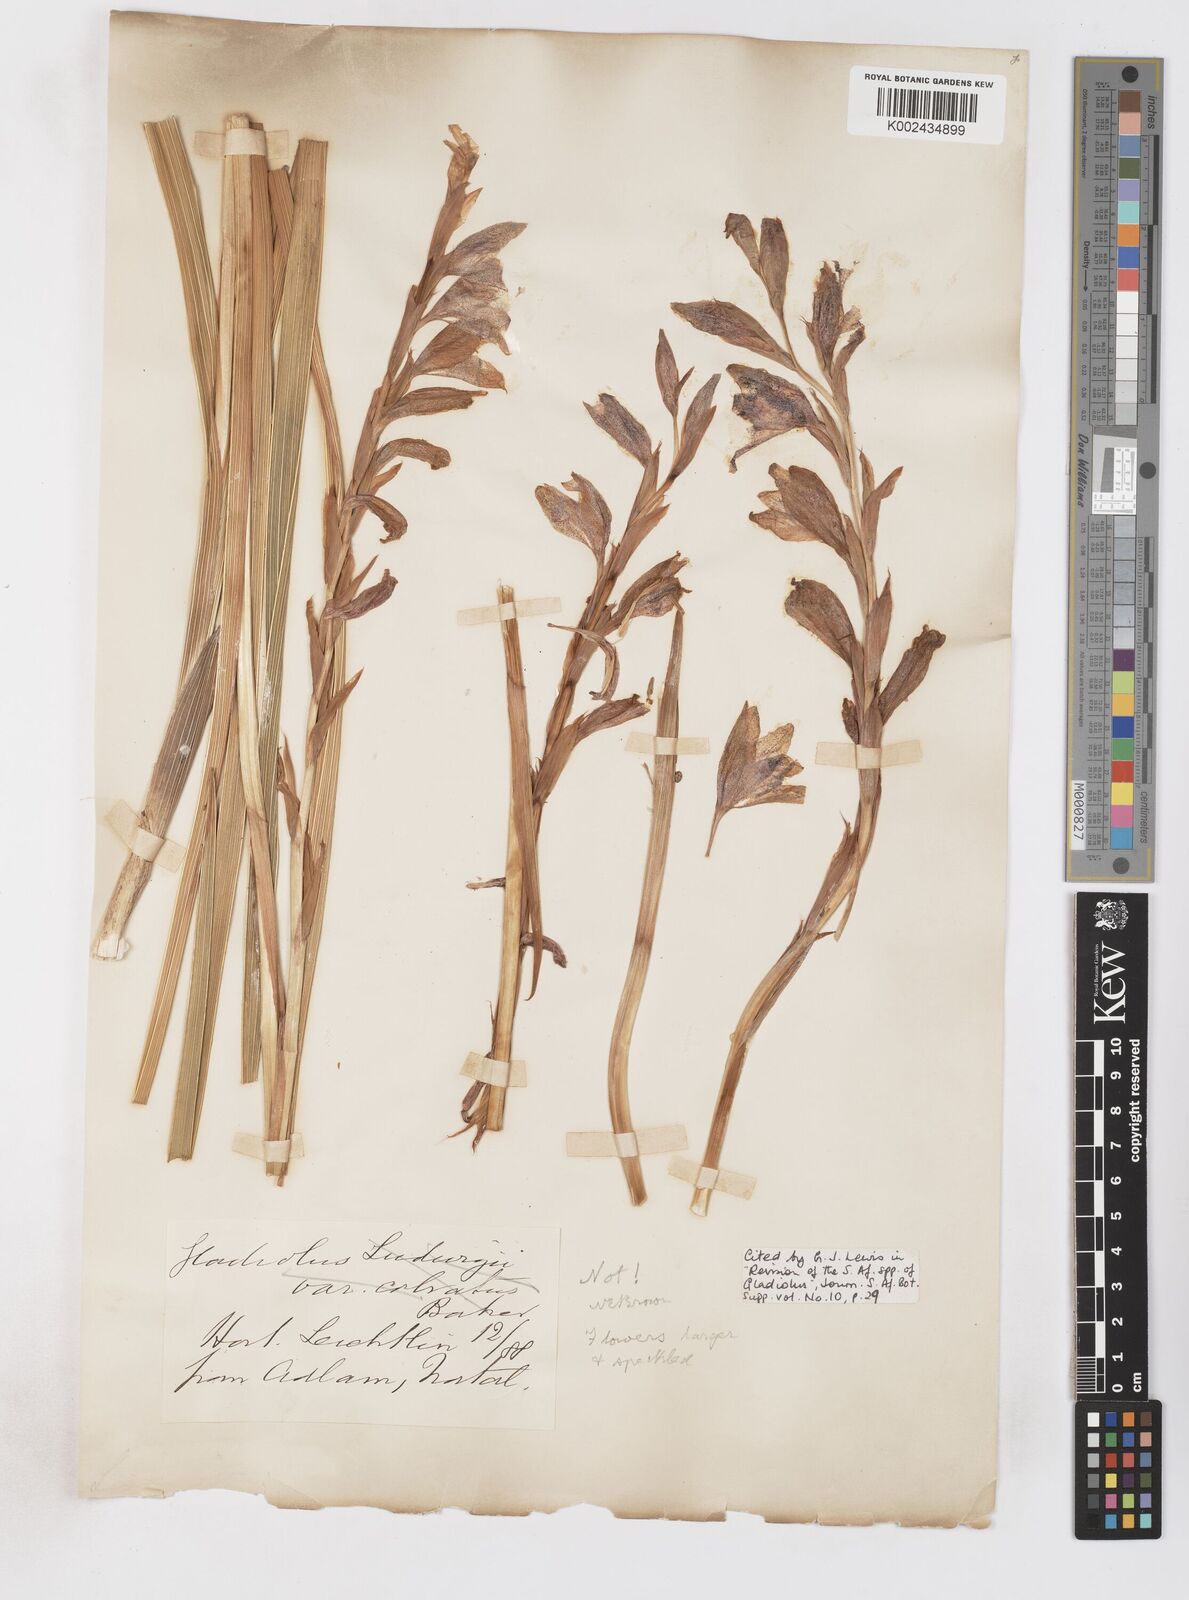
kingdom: Plantae
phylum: Tracheophyta
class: Liliopsida
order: Asparagales
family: Iridaceae
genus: Gladiolus
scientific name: Gladiolus elliotii
